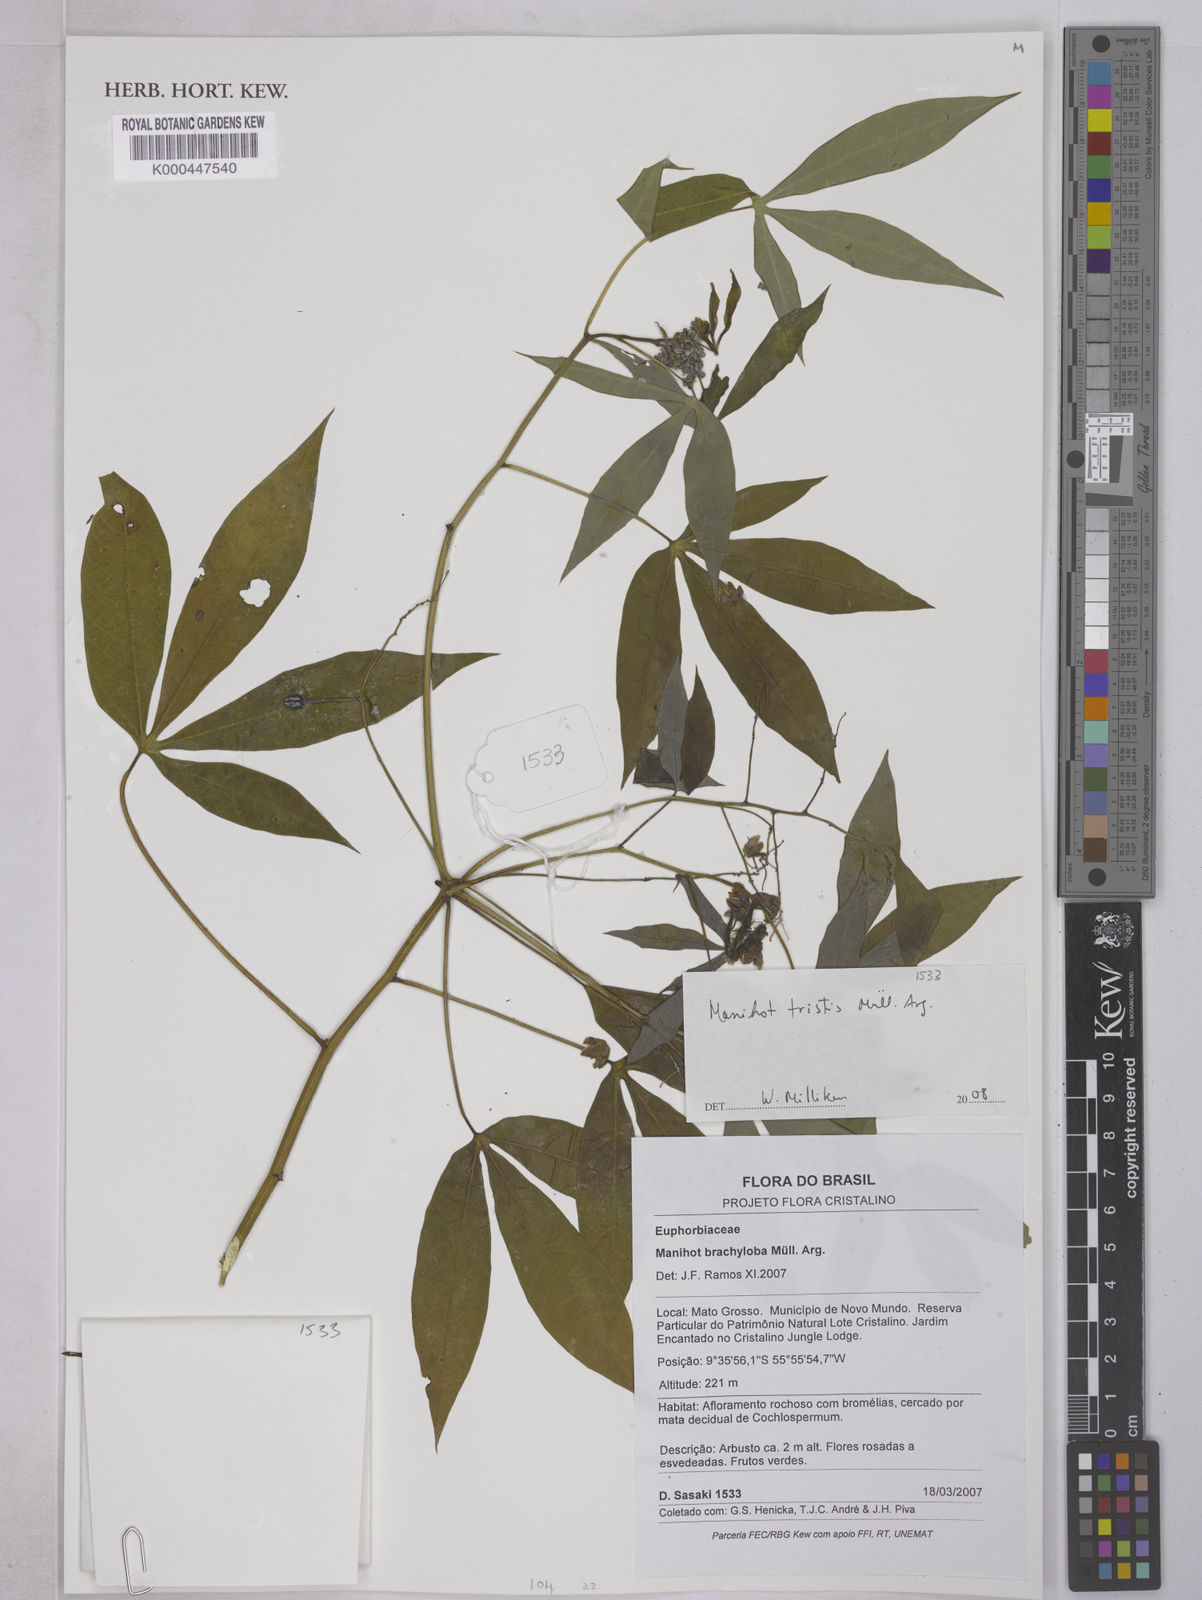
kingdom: Plantae
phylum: Tracheophyta
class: Magnoliopsida
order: Malpighiales
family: Euphorbiaceae
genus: Manihot
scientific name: Manihot
